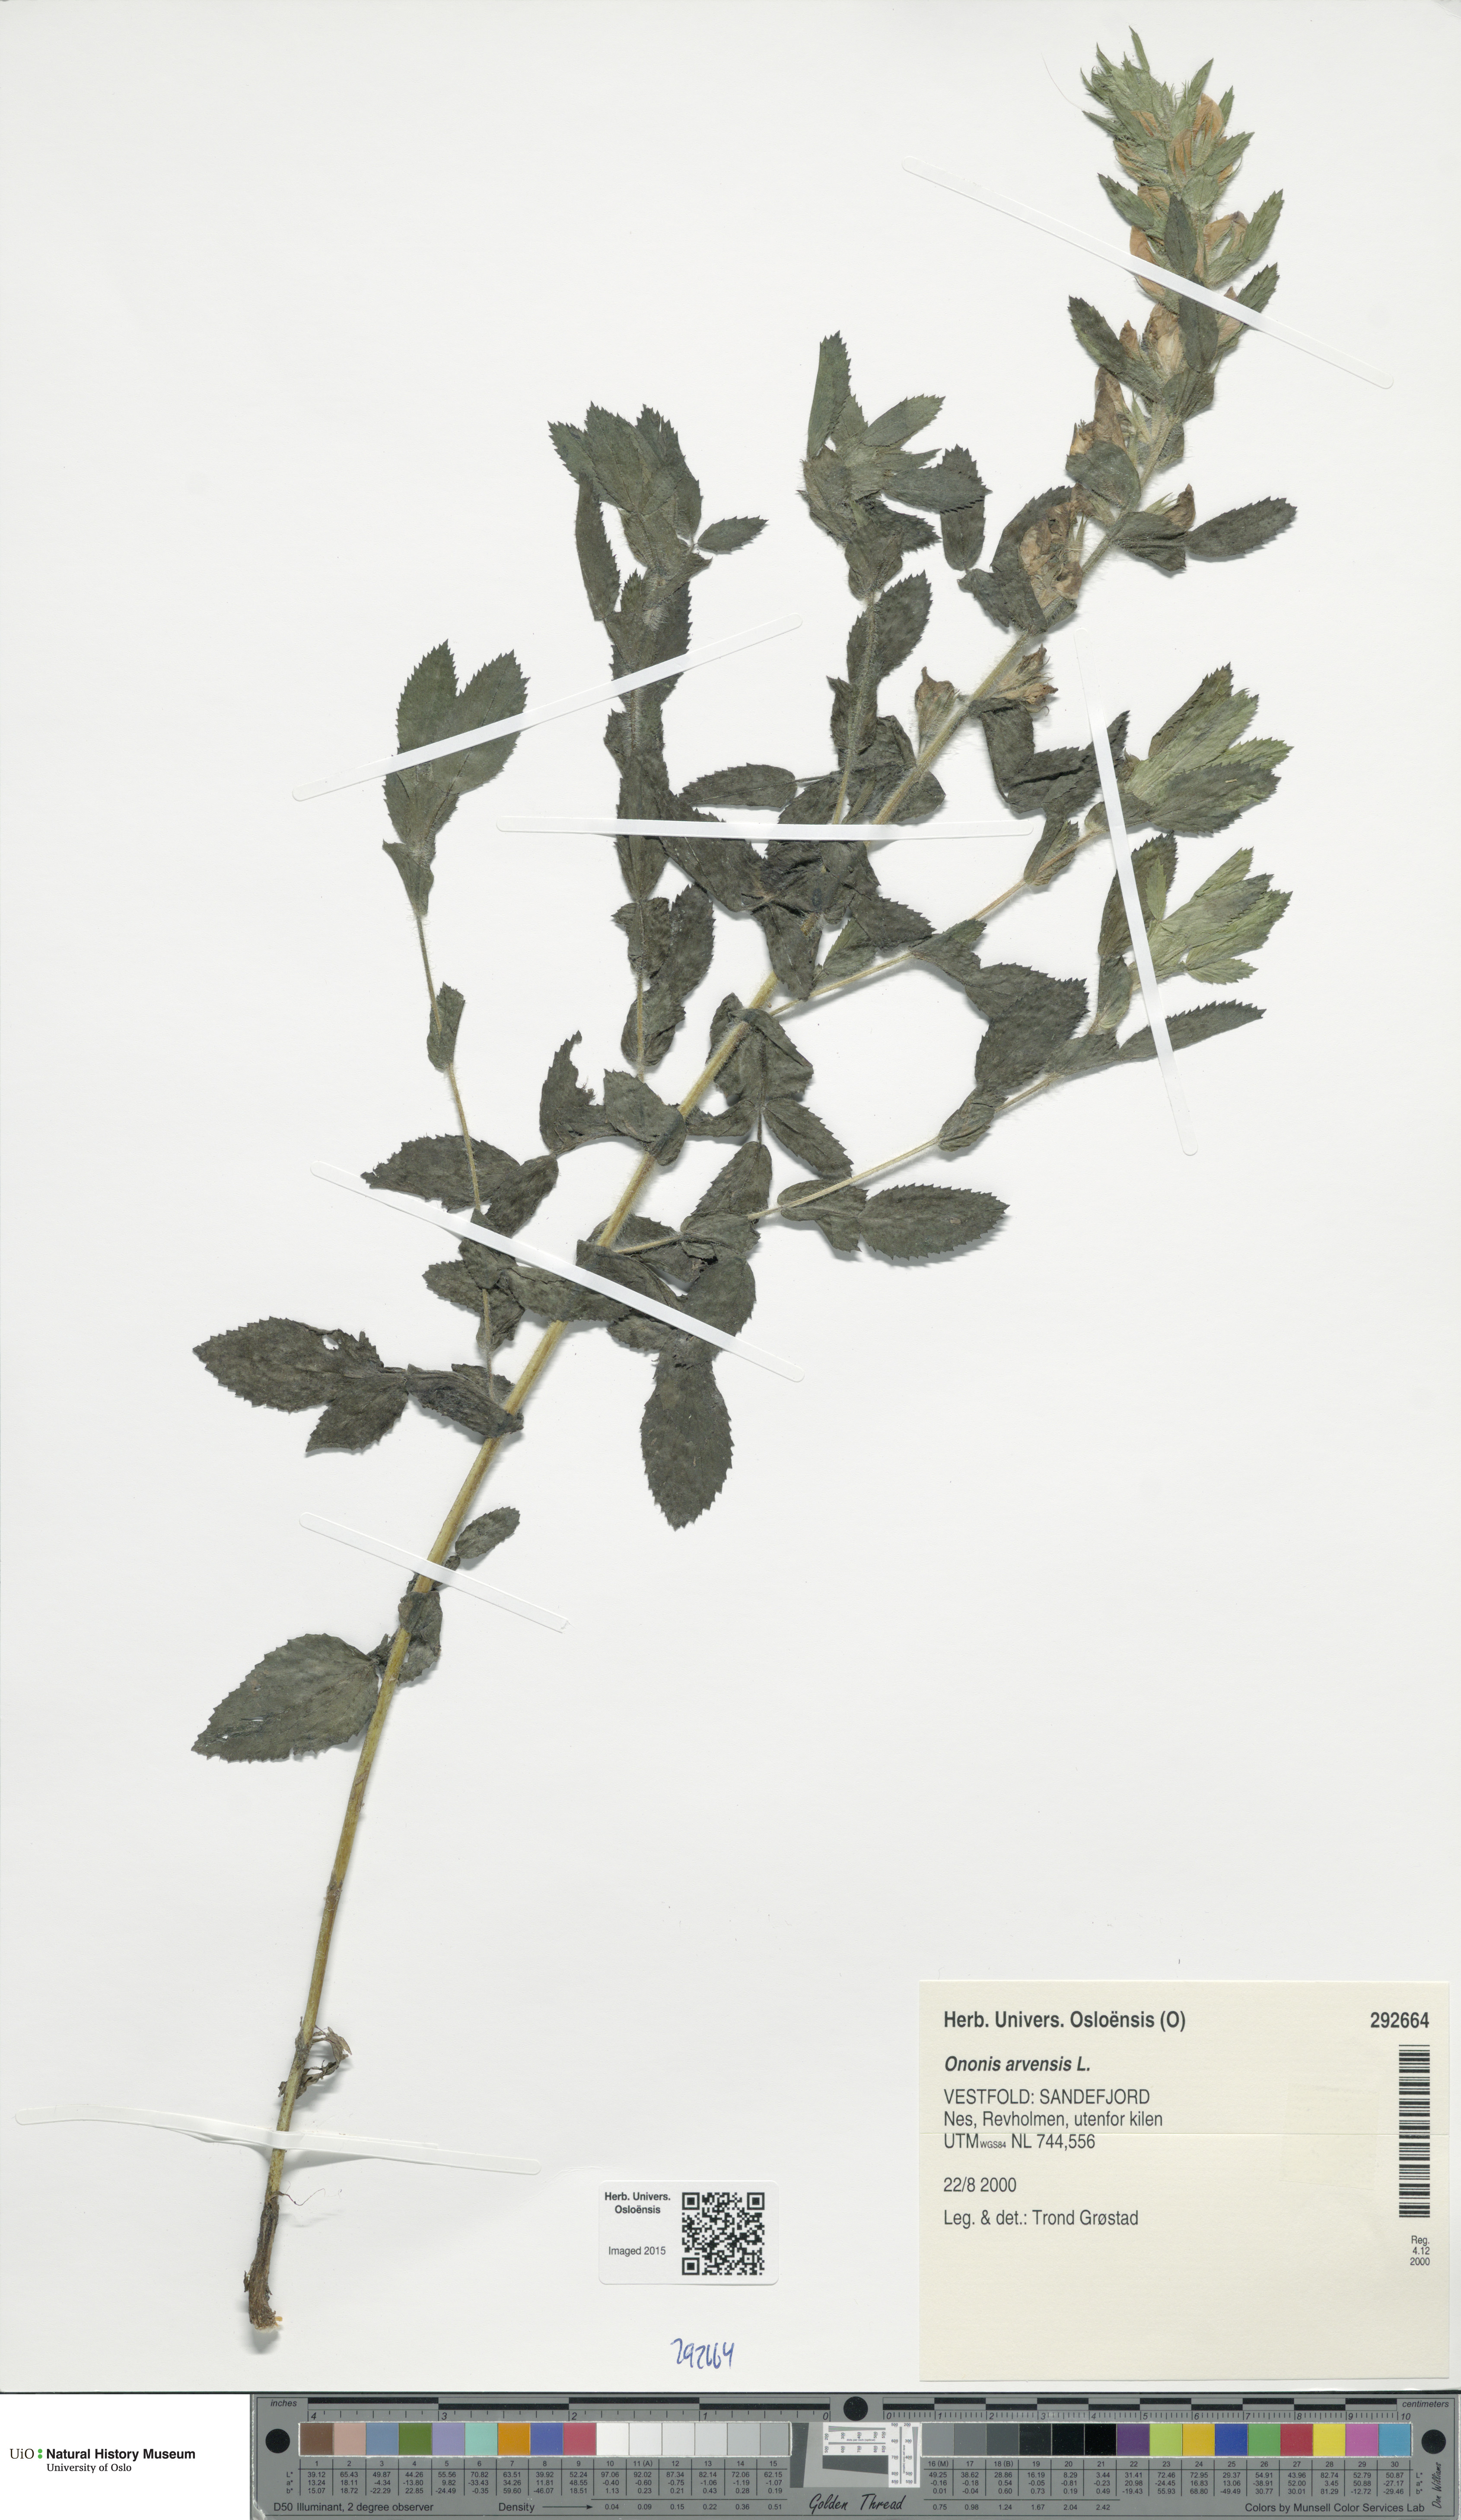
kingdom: Plantae
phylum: Tracheophyta
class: Magnoliopsida
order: Fabales
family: Fabaceae
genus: Ononis
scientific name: Ononis arvensis
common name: Field restharrow
